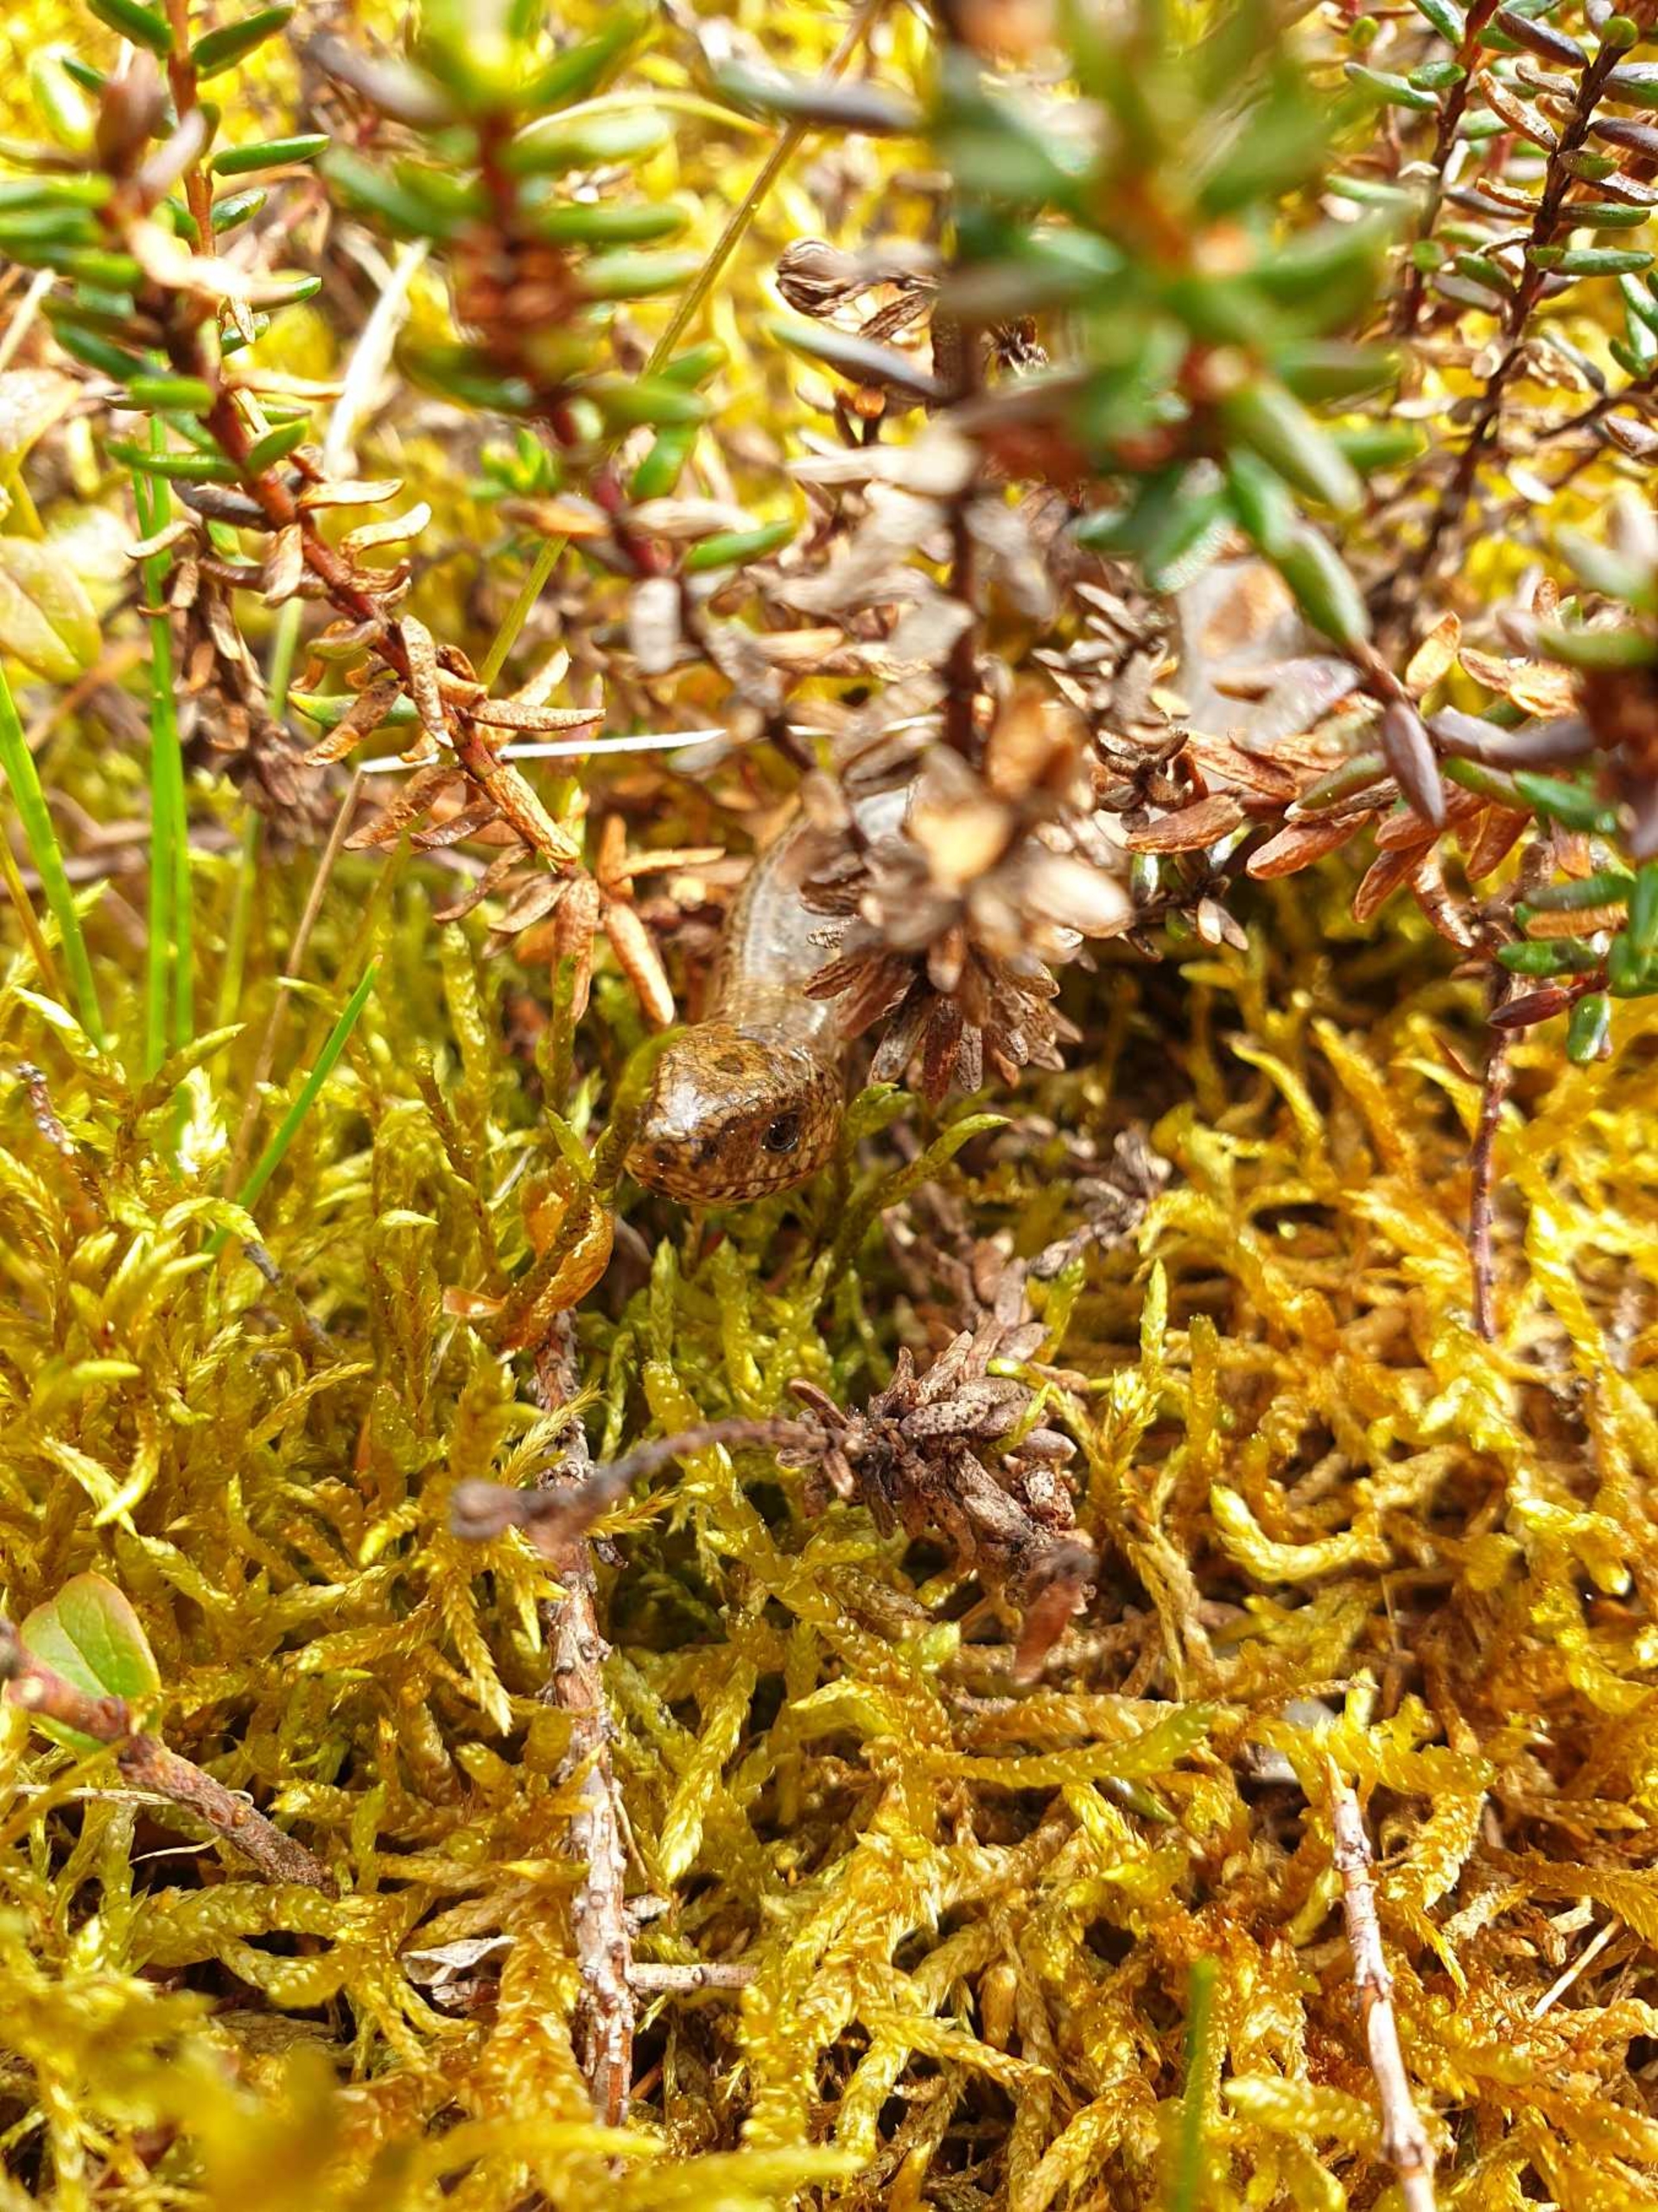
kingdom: Animalia
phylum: Chordata
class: Squamata
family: Anguidae
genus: Anguis
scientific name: Anguis fragilis
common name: Stålorm
